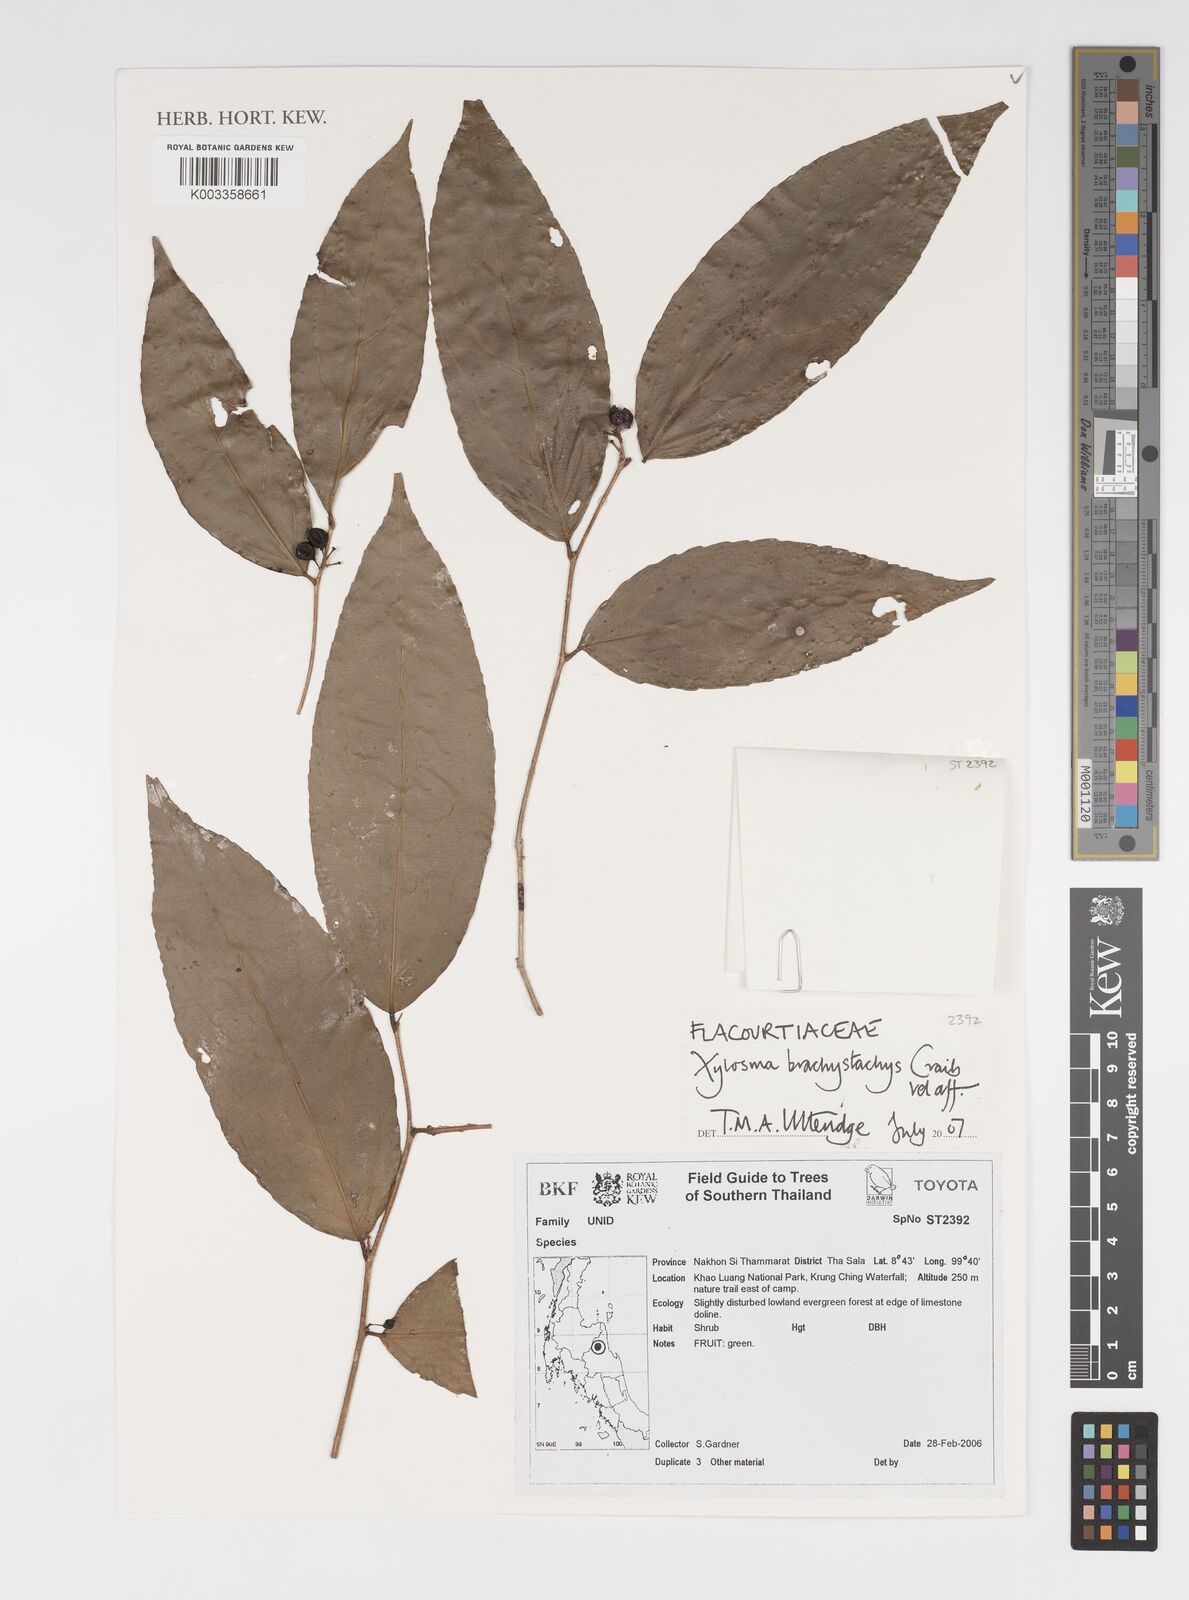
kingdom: Plantae
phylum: Tracheophyta
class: Magnoliopsida
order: Malpighiales
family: Salicaceae
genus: Xylosma
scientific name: Xylosma brachystachys
